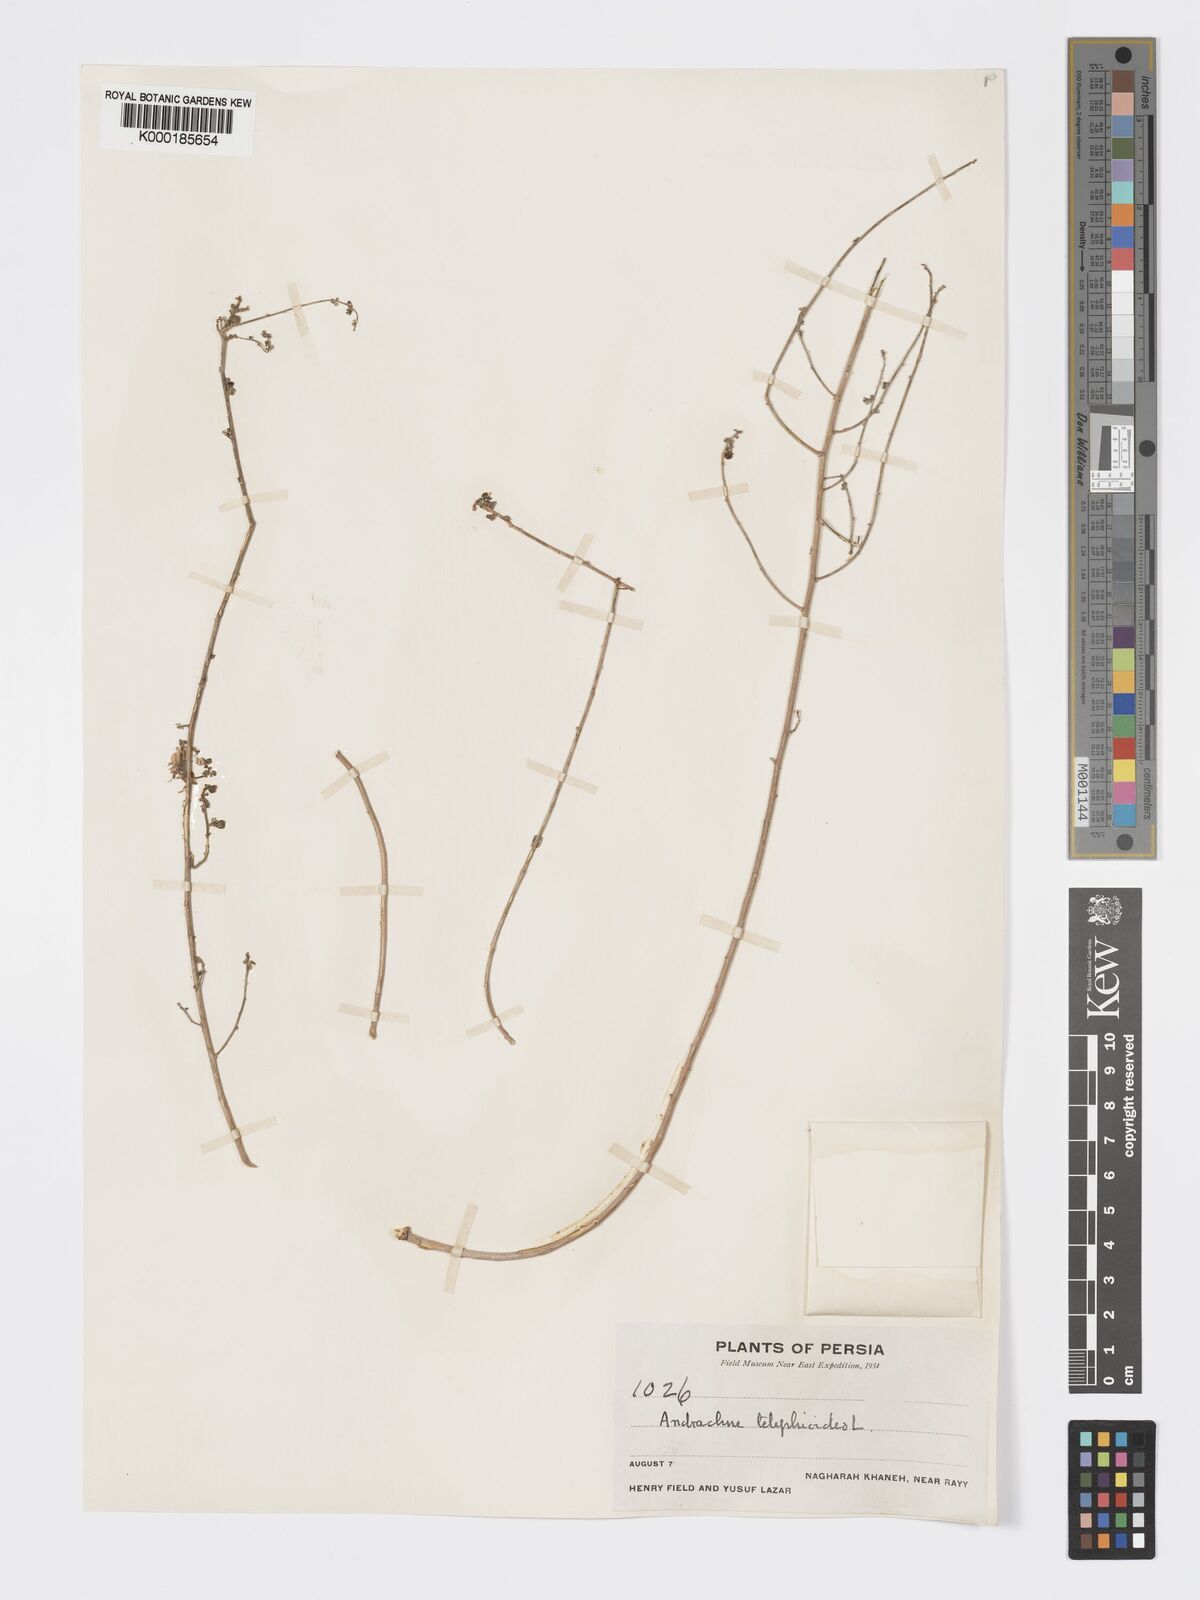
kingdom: Plantae
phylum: Tracheophyta
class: Magnoliopsida
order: Malpighiales
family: Phyllanthaceae
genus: Andrachne
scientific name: Andrachne telephioides
